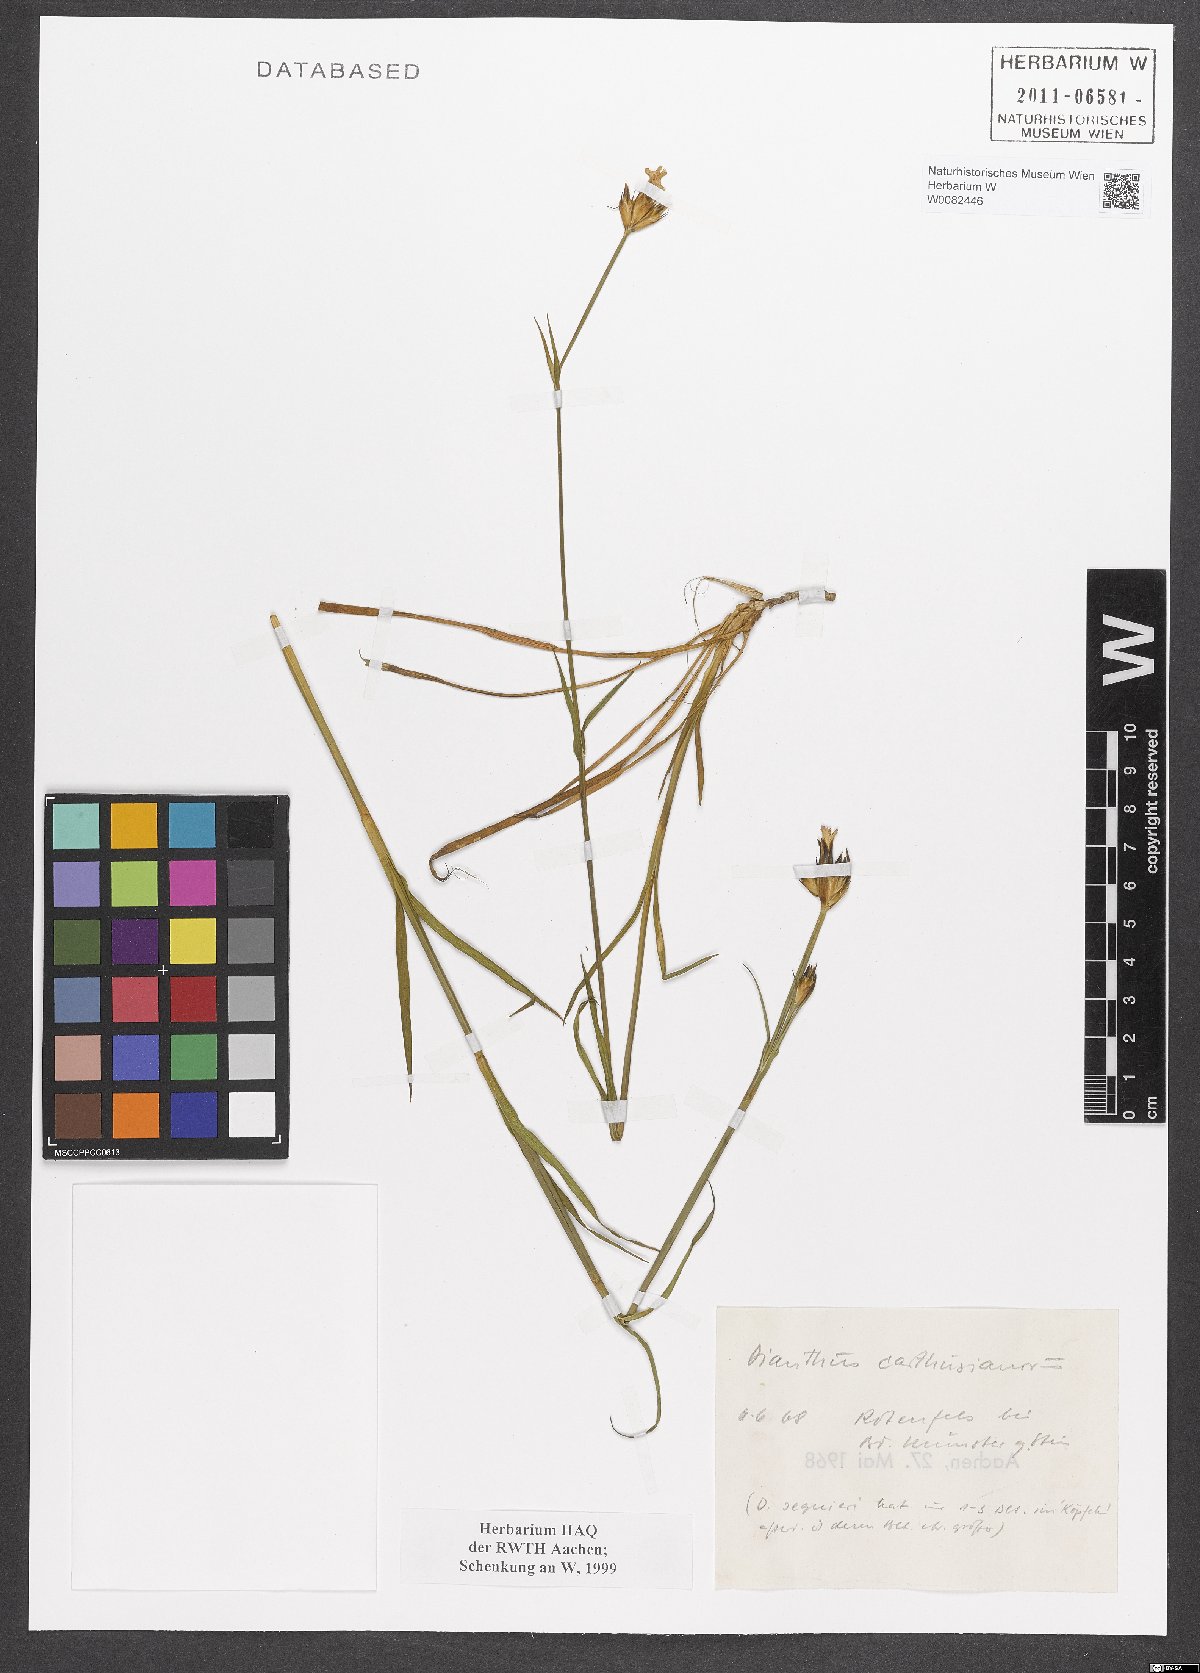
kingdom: Plantae
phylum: Tracheophyta
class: Magnoliopsida
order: Caryophyllales
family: Caryophyllaceae
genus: Dianthus
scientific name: Dianthus carthusianorum
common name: Carthusian pink
